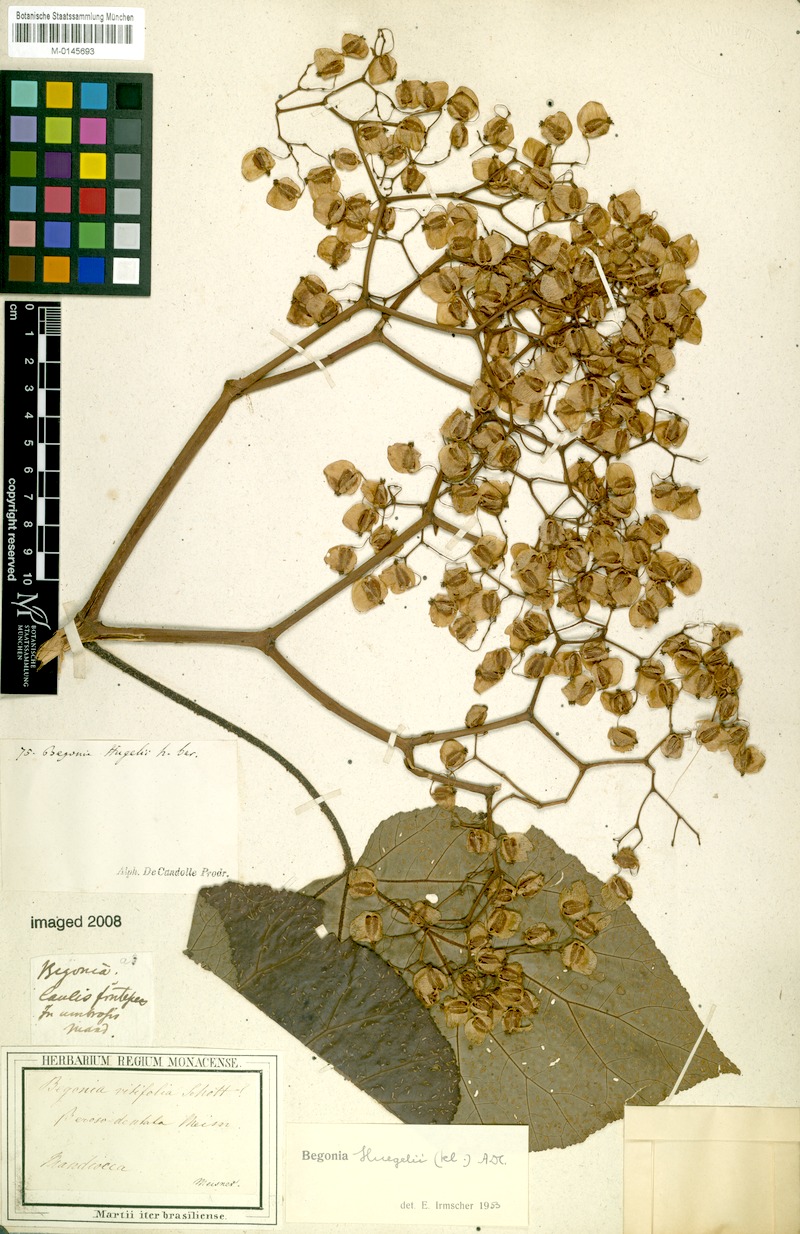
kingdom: Plantae
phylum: Tracheophyta
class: Magnoliopsida
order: Cucurbitales
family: Begoniaceae
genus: Begonia
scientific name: Begonia huegelii
